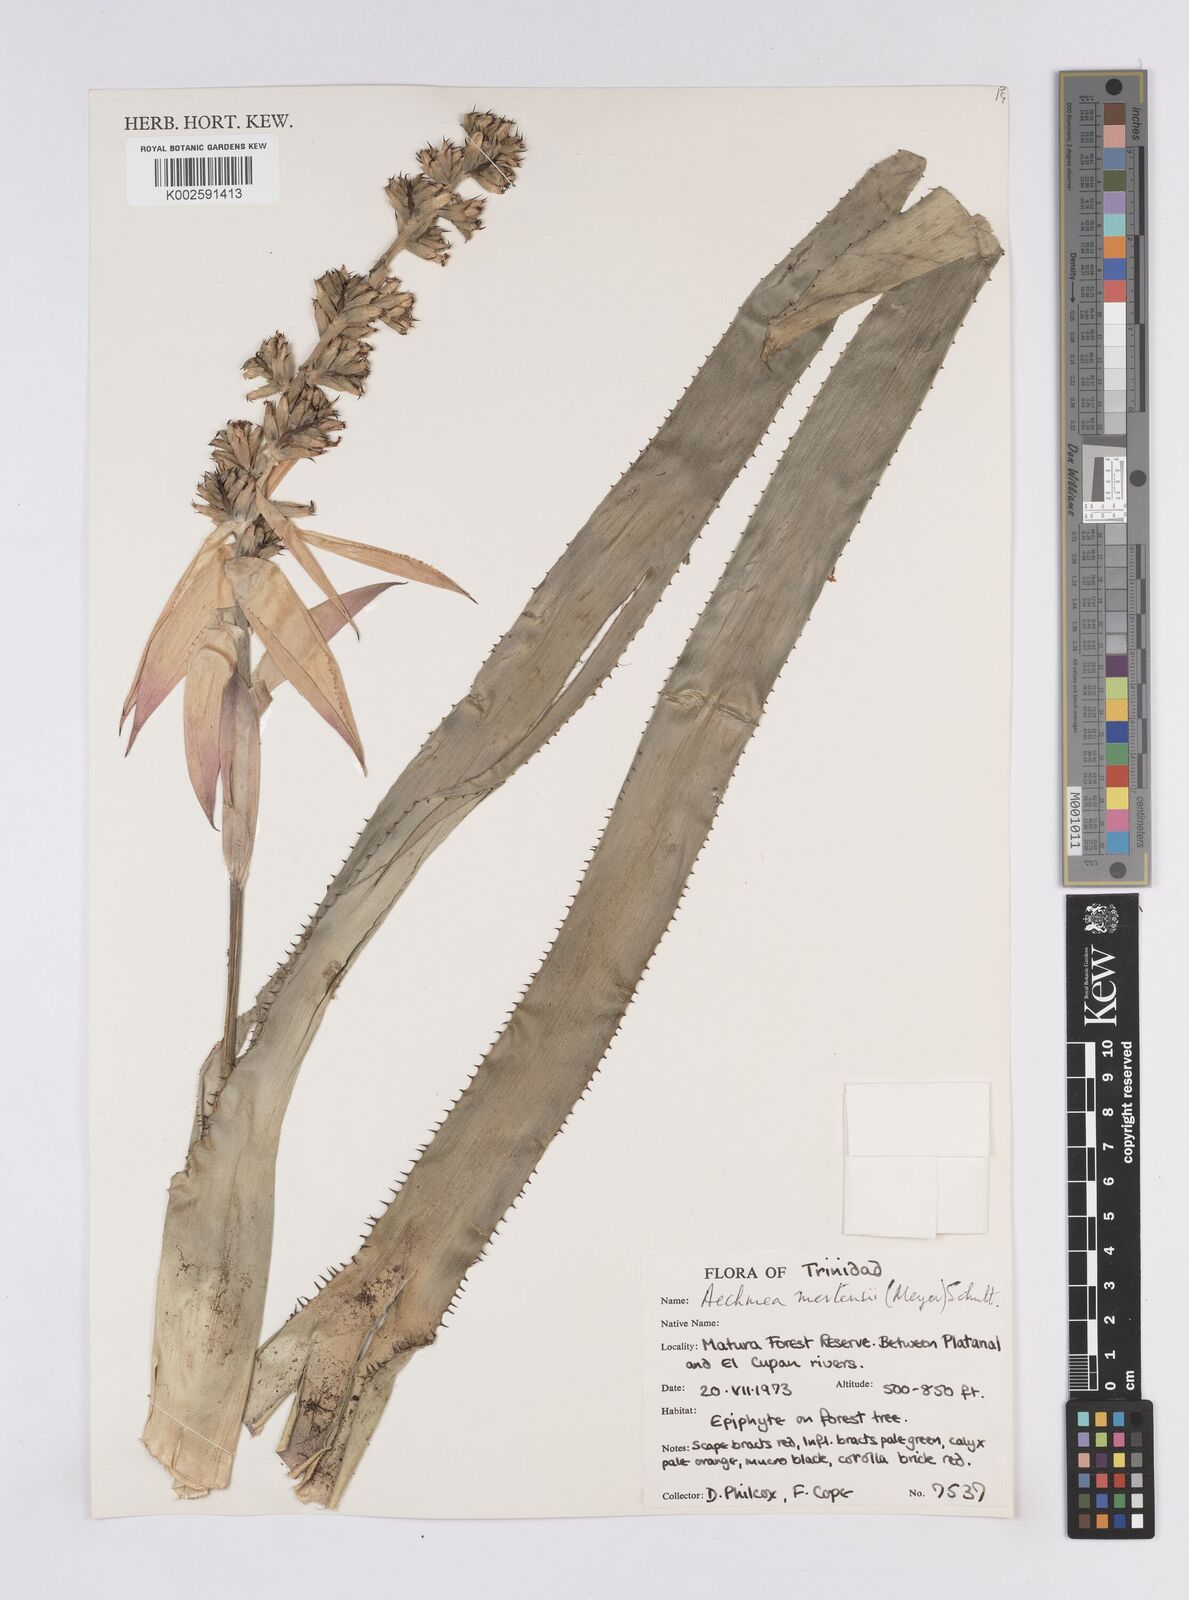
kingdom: Plantae
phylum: Tracheophyta
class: Liliopsida
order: Poales
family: Bromeliaceae
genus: Aechmea
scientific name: Aechmea mertensii
